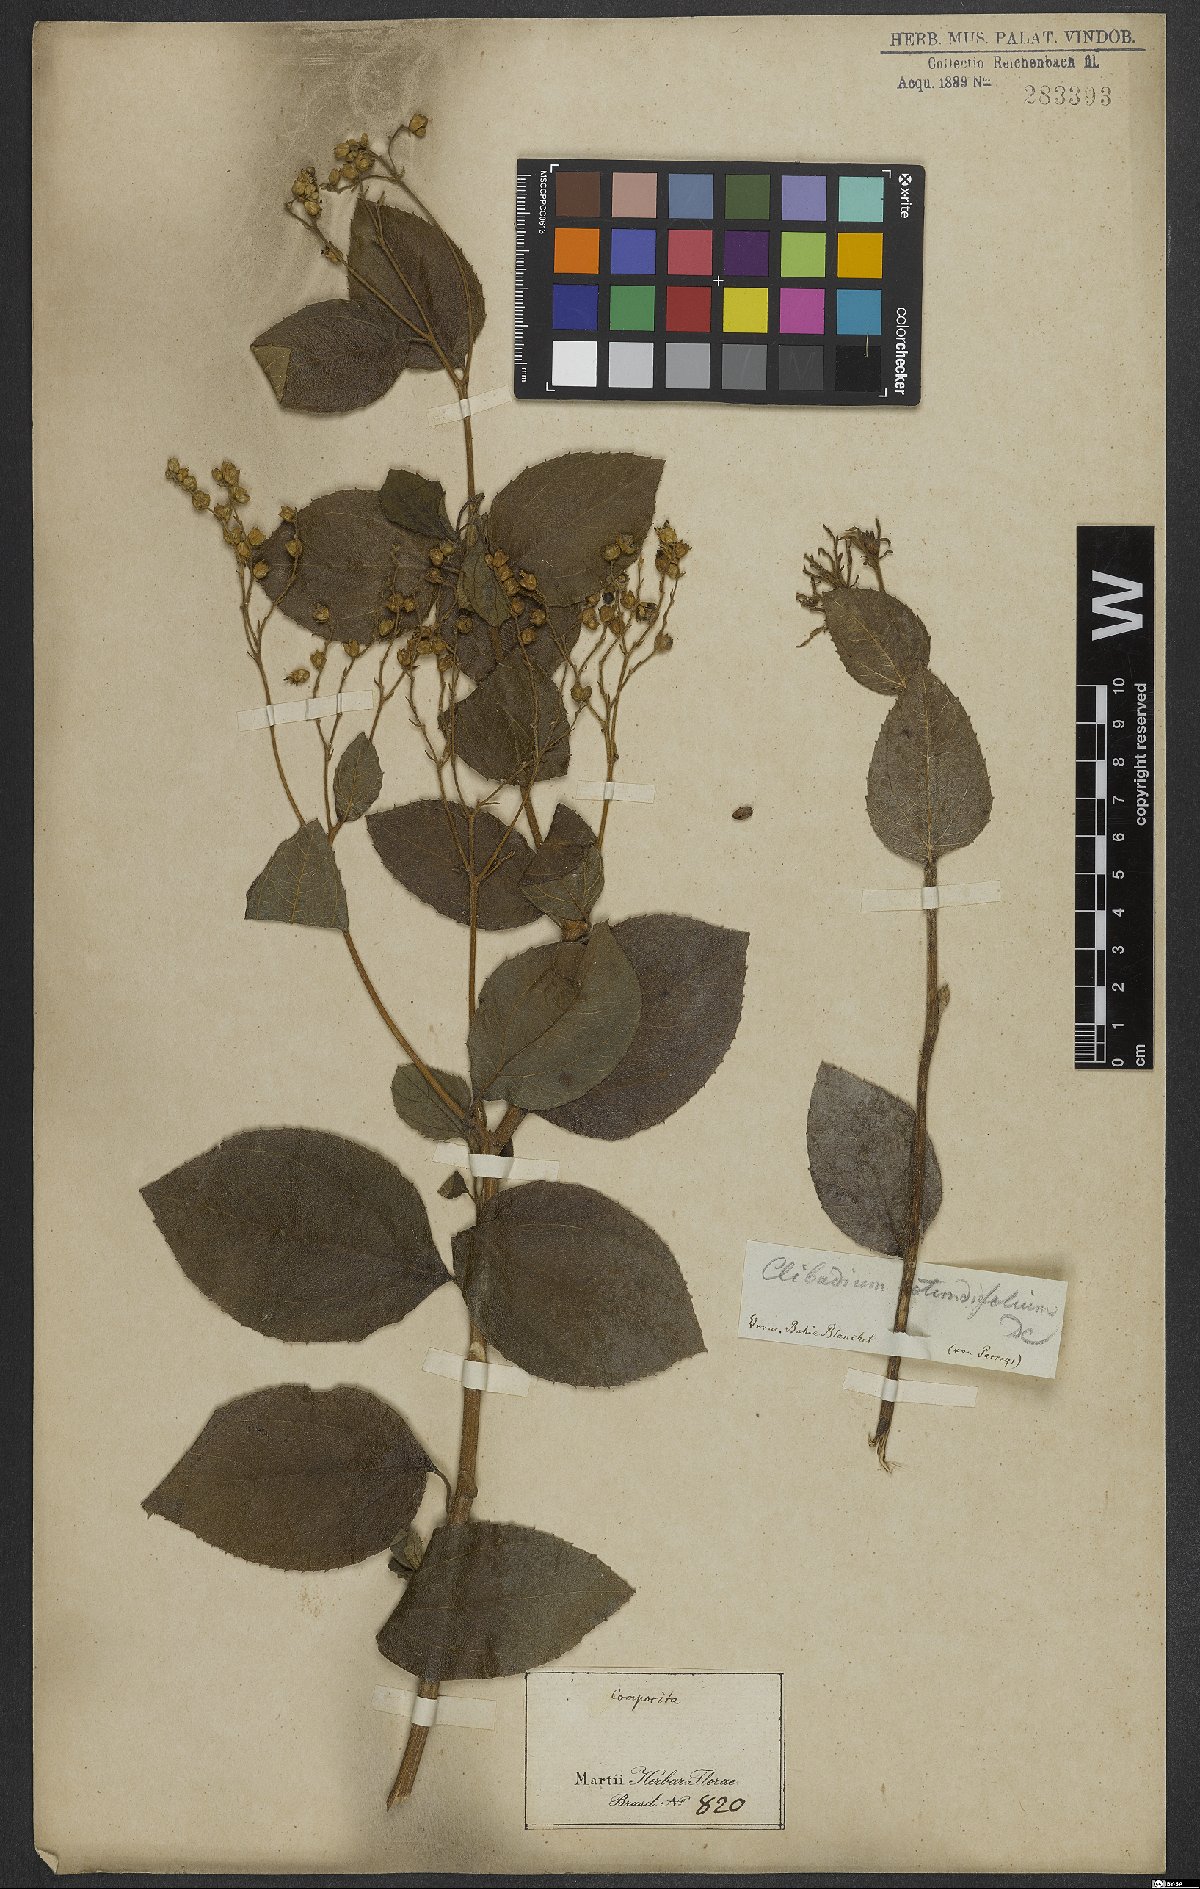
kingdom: Plantae
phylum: Tracheophyta
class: Magnoliopsida
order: Asterales
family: Asteraceae
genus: Clibadium
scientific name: Clibadium armanii
